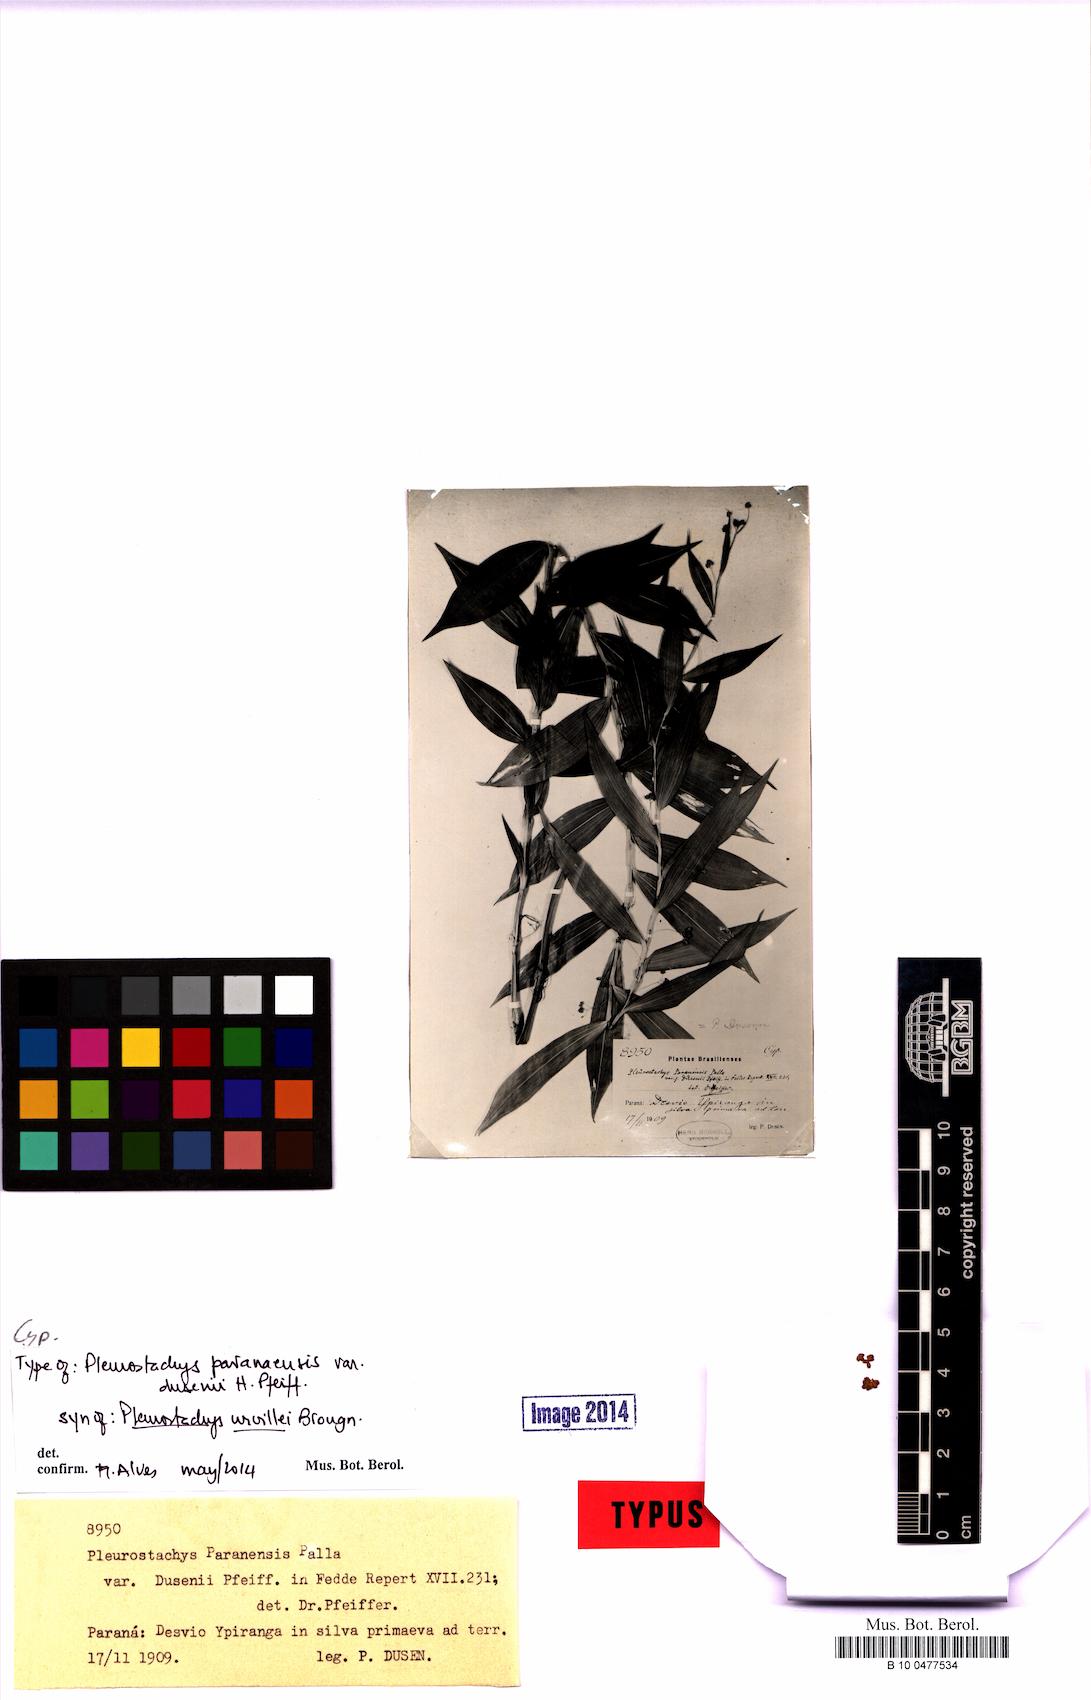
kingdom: Plantae
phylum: Tracheophyta
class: Liliopsida
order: Poales
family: Cyperaceae
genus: Rhynchospora
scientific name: Rhynchospora Pleurostachys ulei
